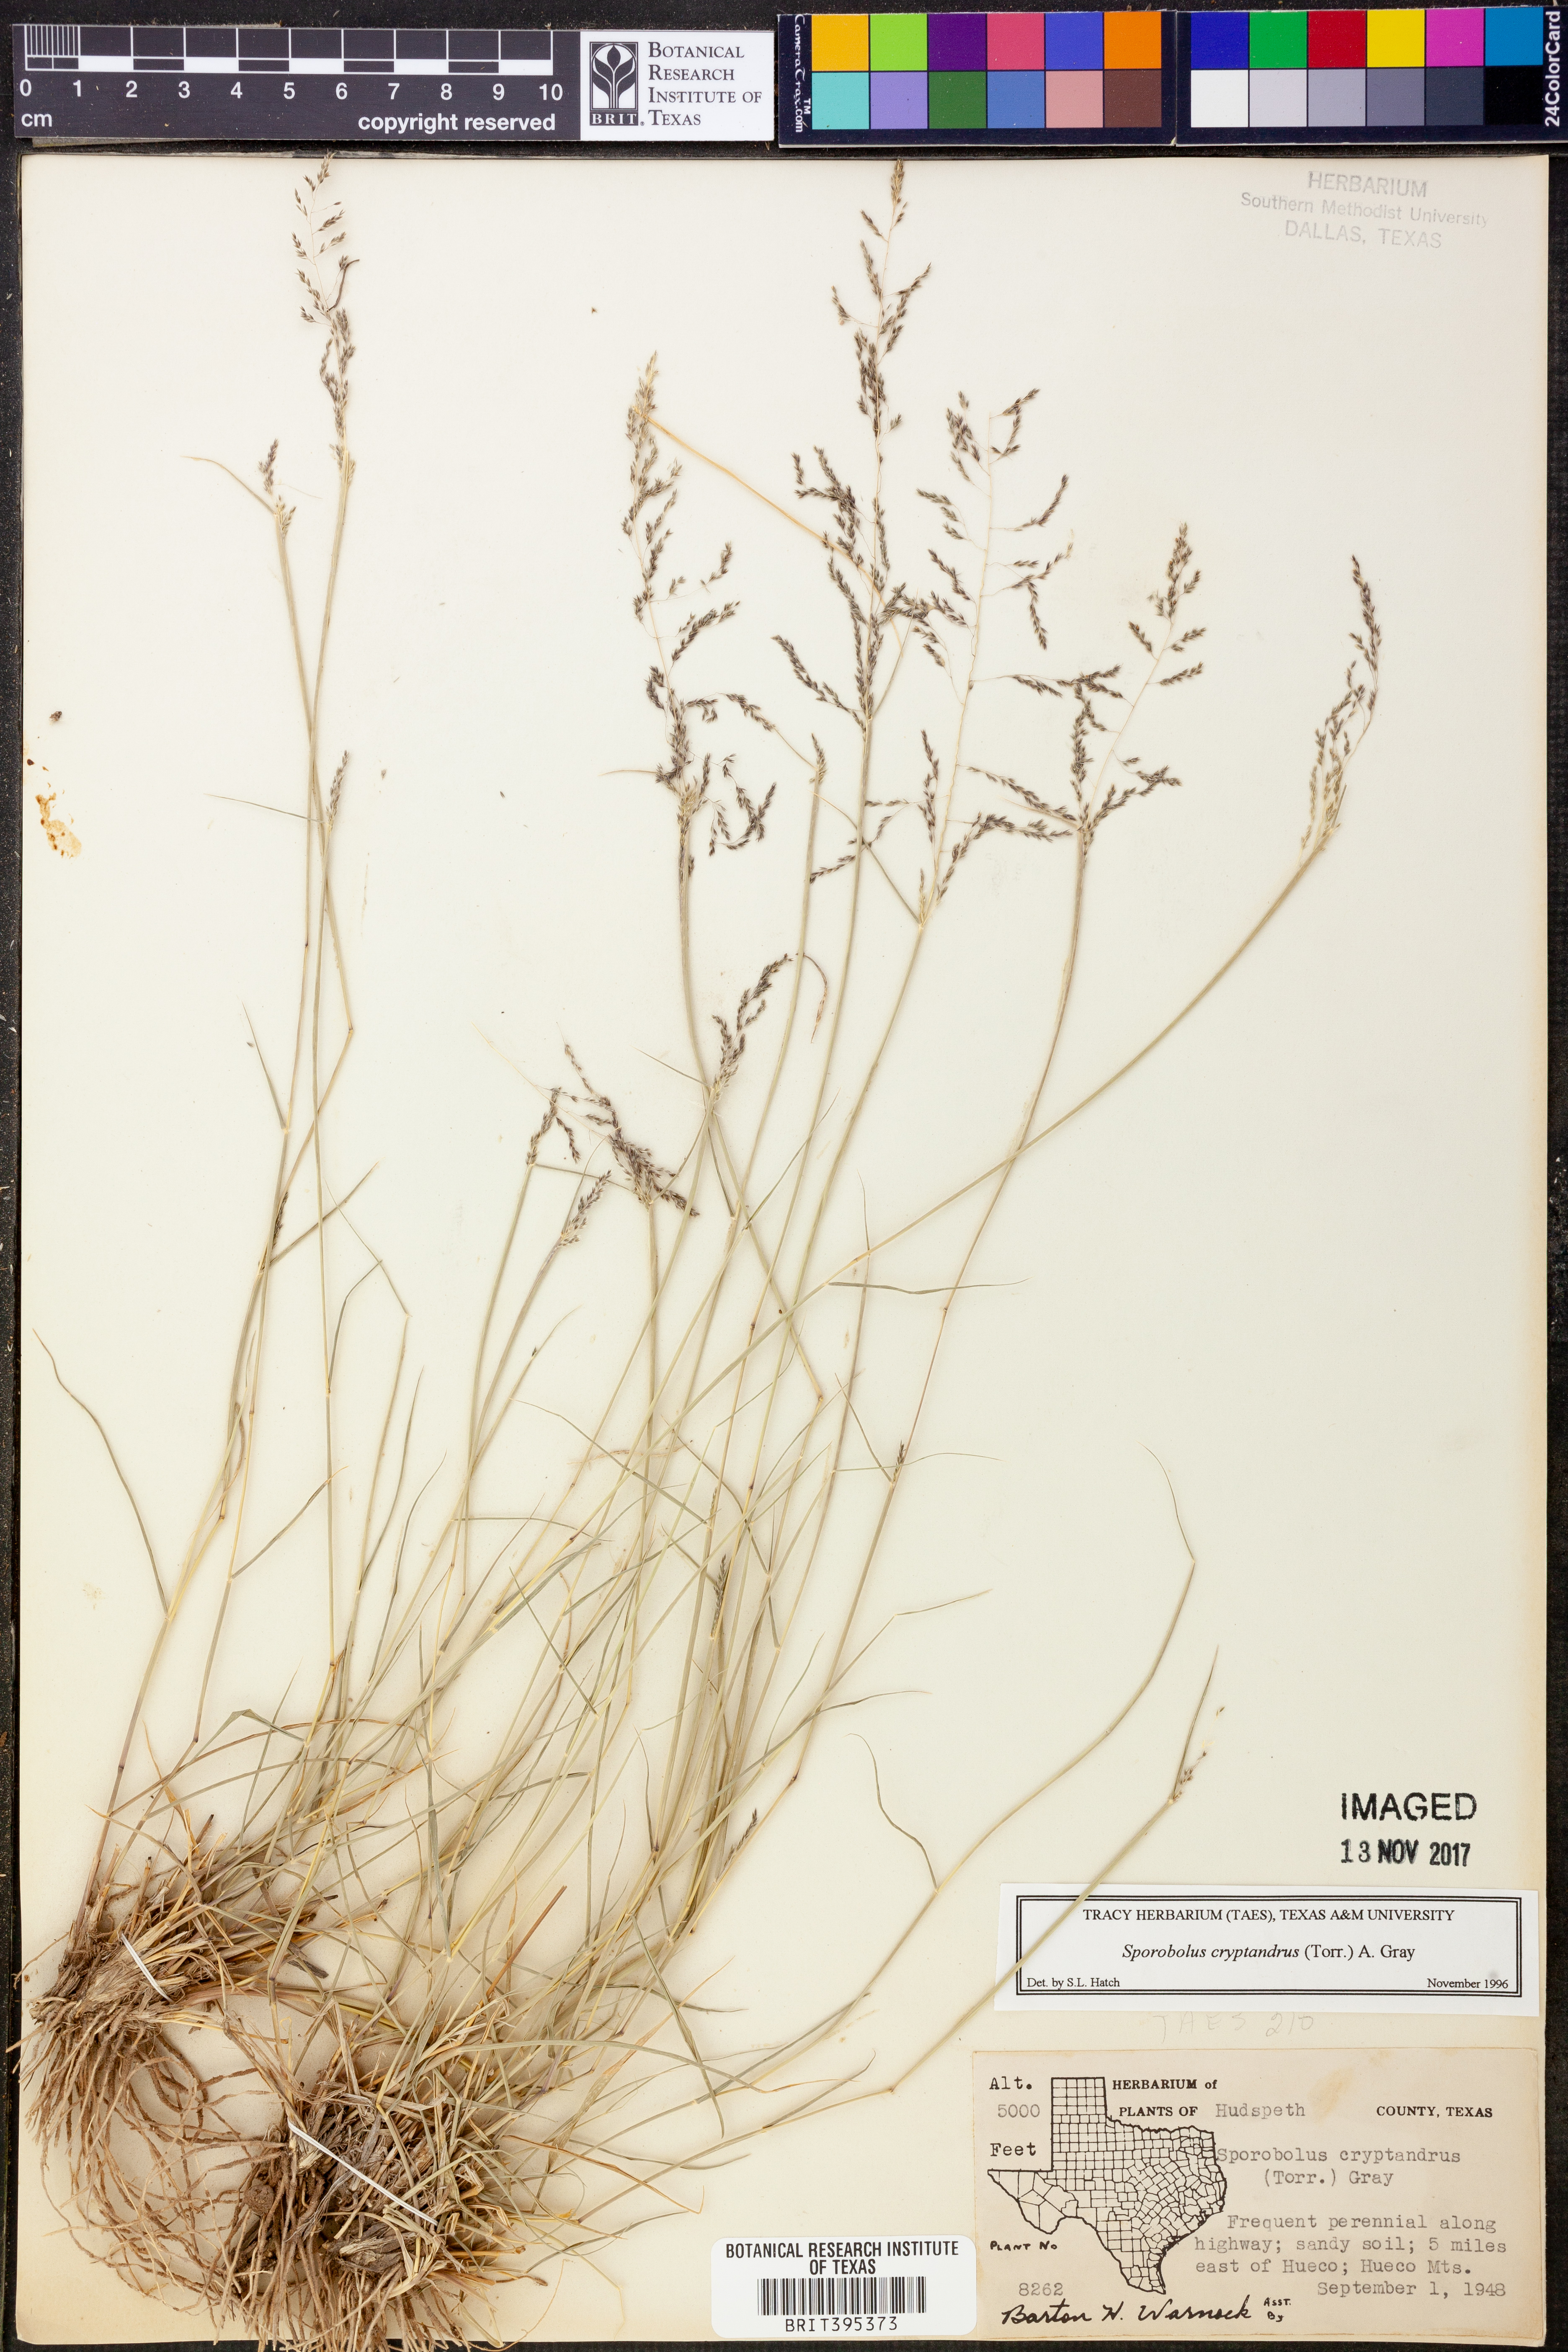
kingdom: Plantae
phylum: Tracheophyta
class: Liliopsida
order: Poales
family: Poaceae
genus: Sporobolus
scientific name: Sporobolus cryptandrus
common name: Sand dropseed
